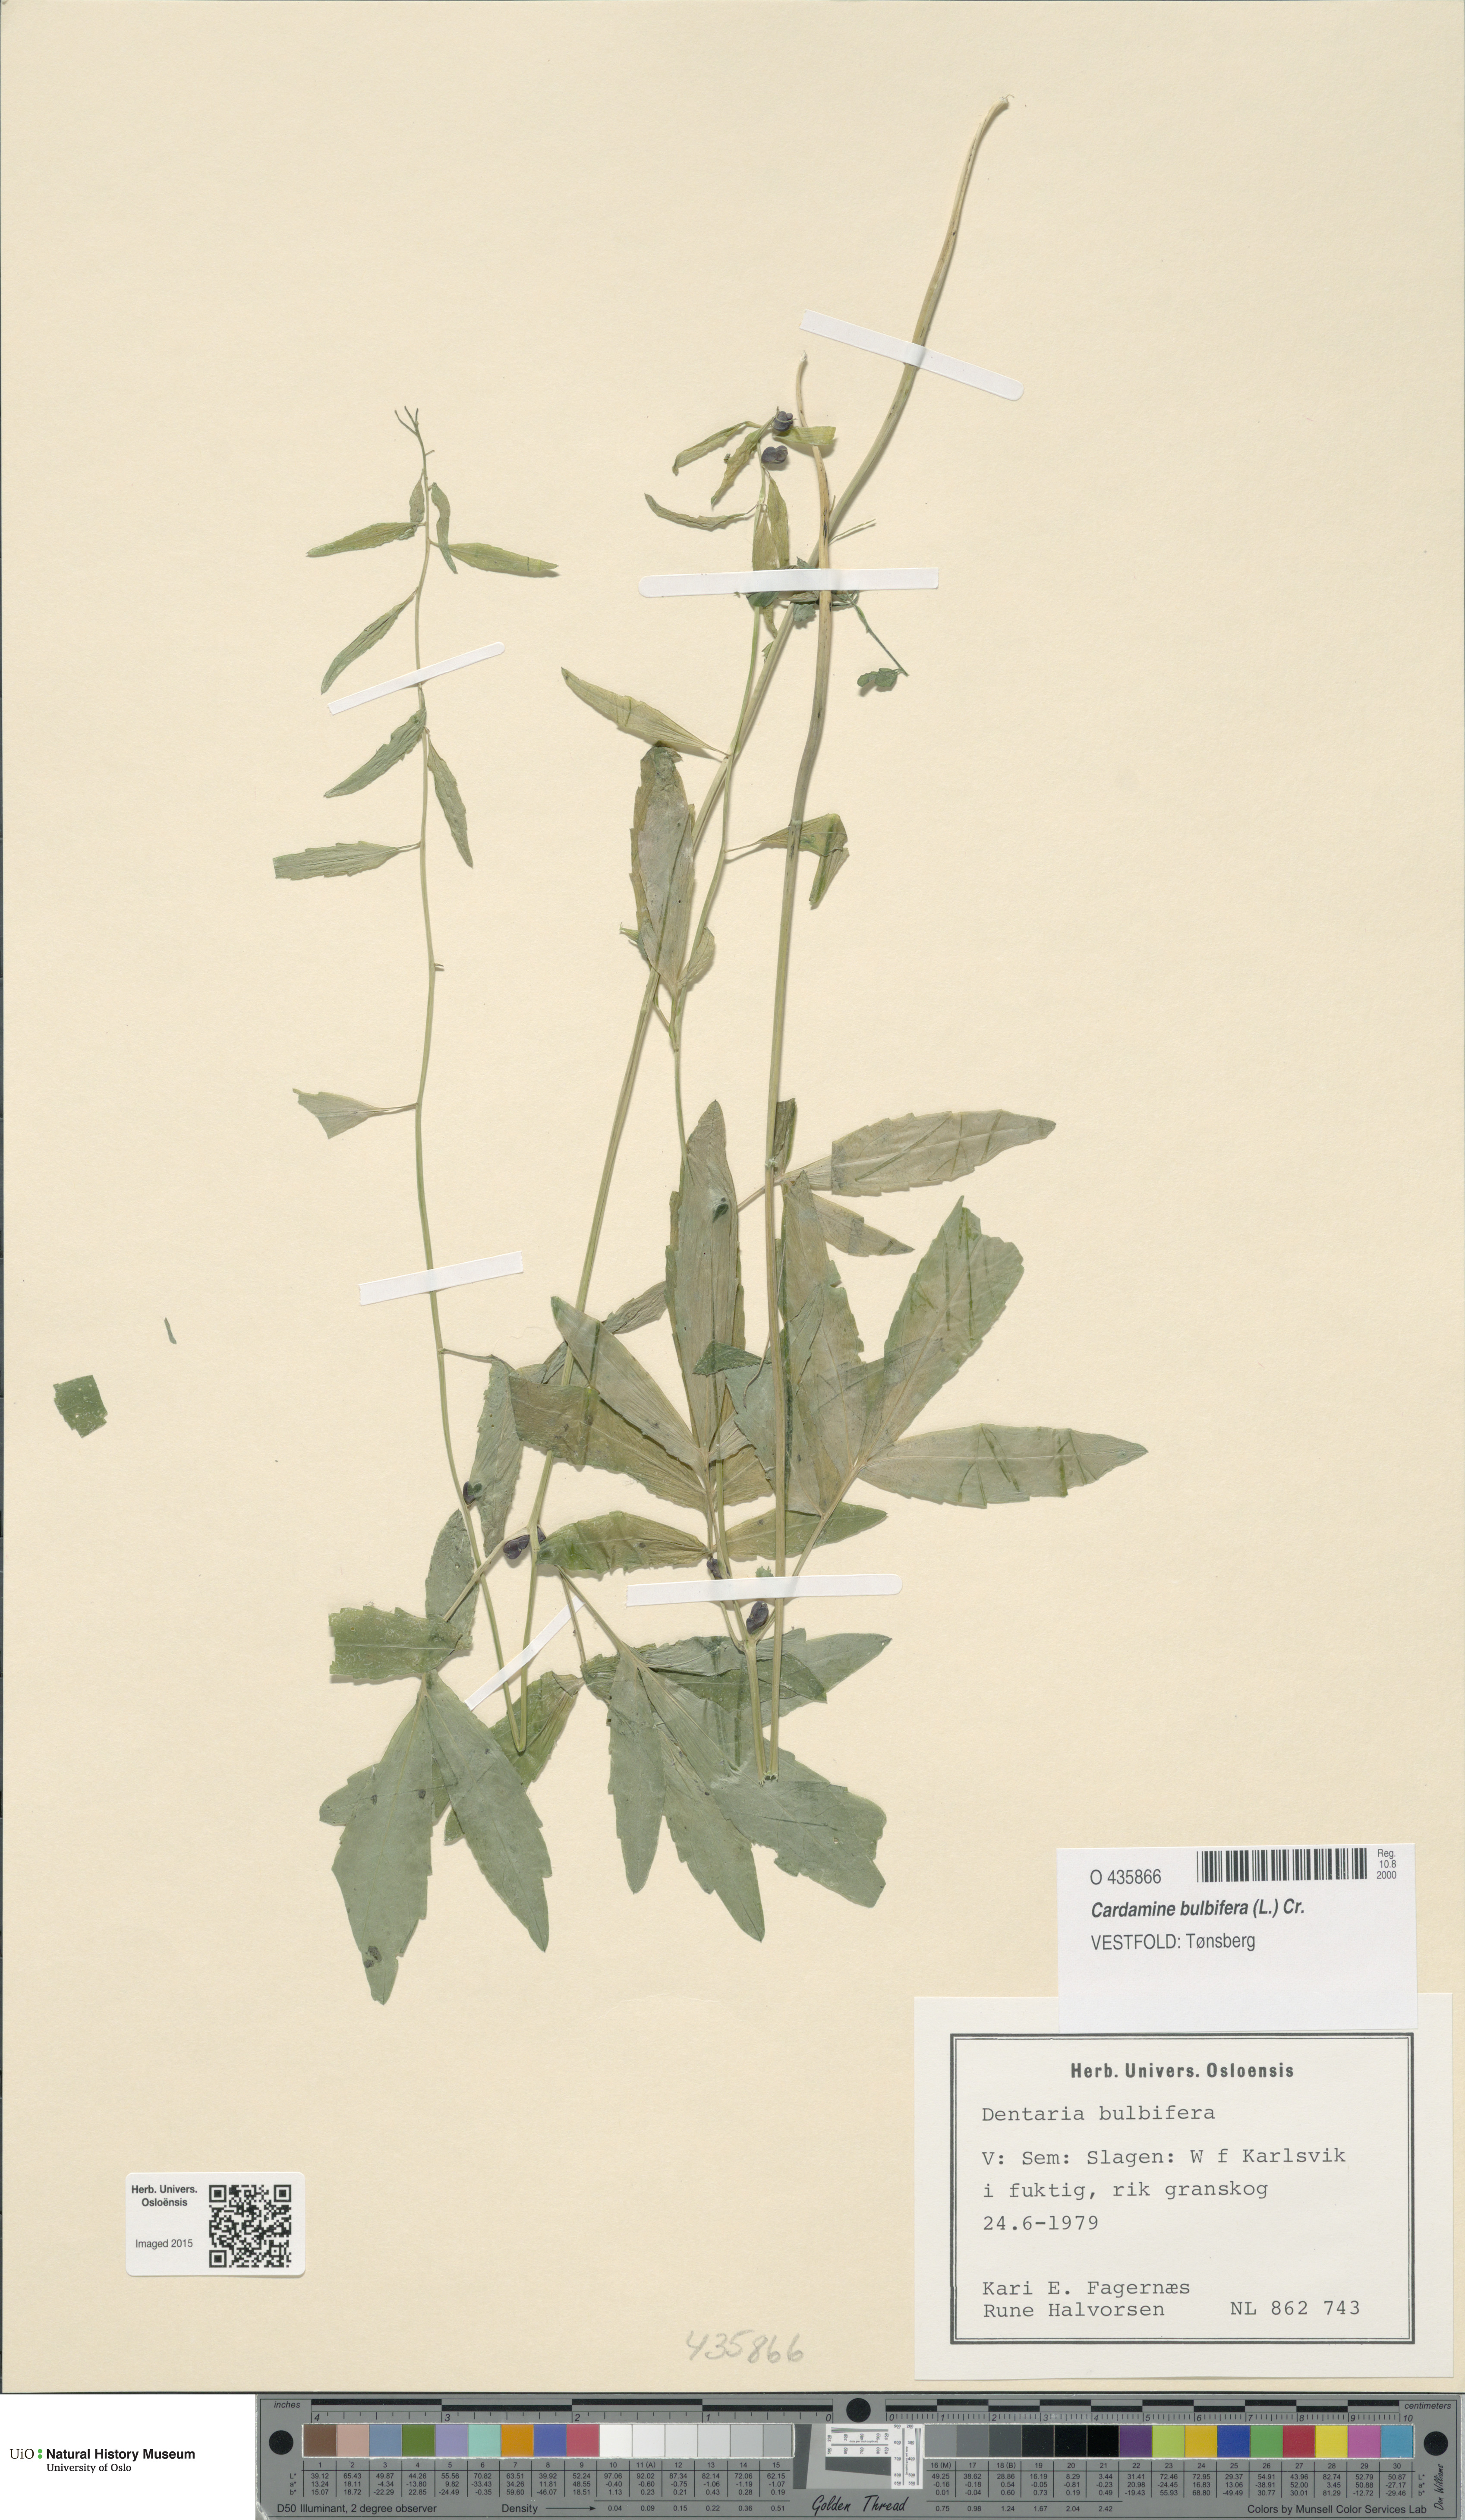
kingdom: Plantae
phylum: Tracheophyta
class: Magnoliopsida
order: Brassicales
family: Brassicaceae
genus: Cardamine
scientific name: Cardamine bulbifera
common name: Coralroot bittercress
